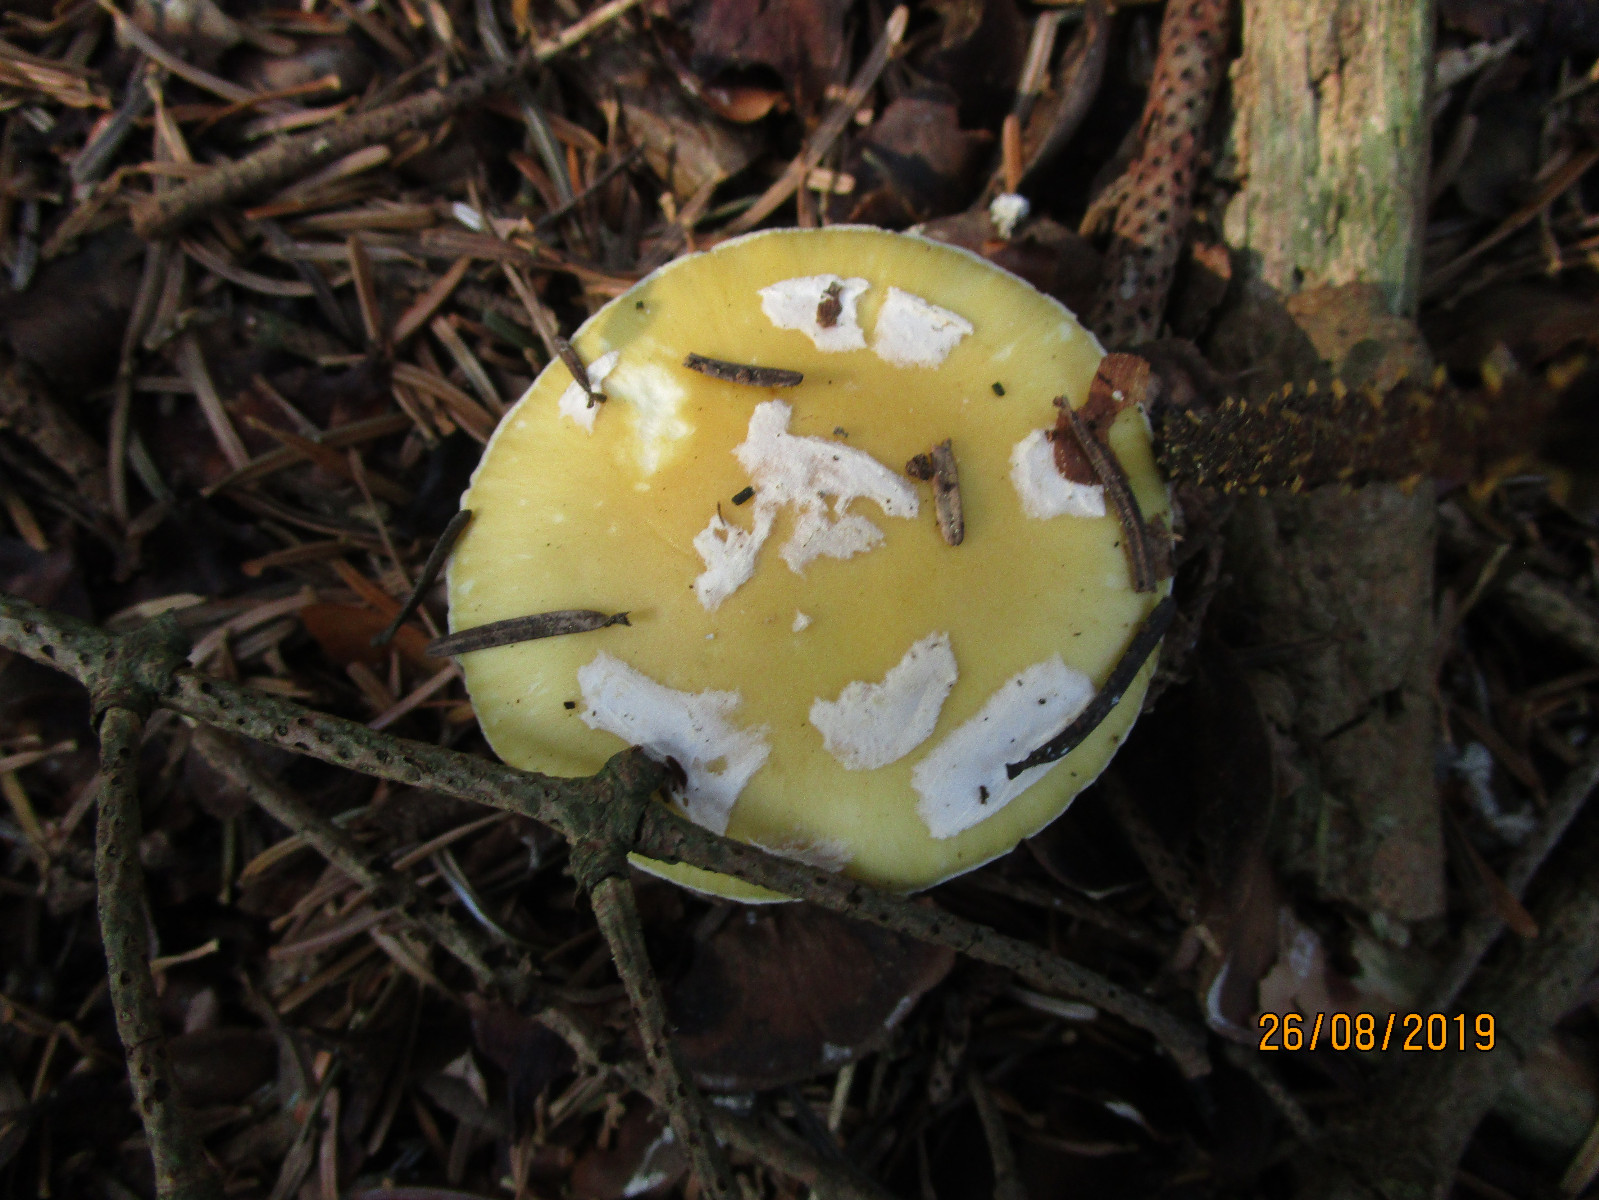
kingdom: Fungi
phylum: Basidiomycota
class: Agaricomycetes
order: Agaricales
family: Amanitaceae
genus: Amanita
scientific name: Amanita gemmata
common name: okkergul fluesvamp
